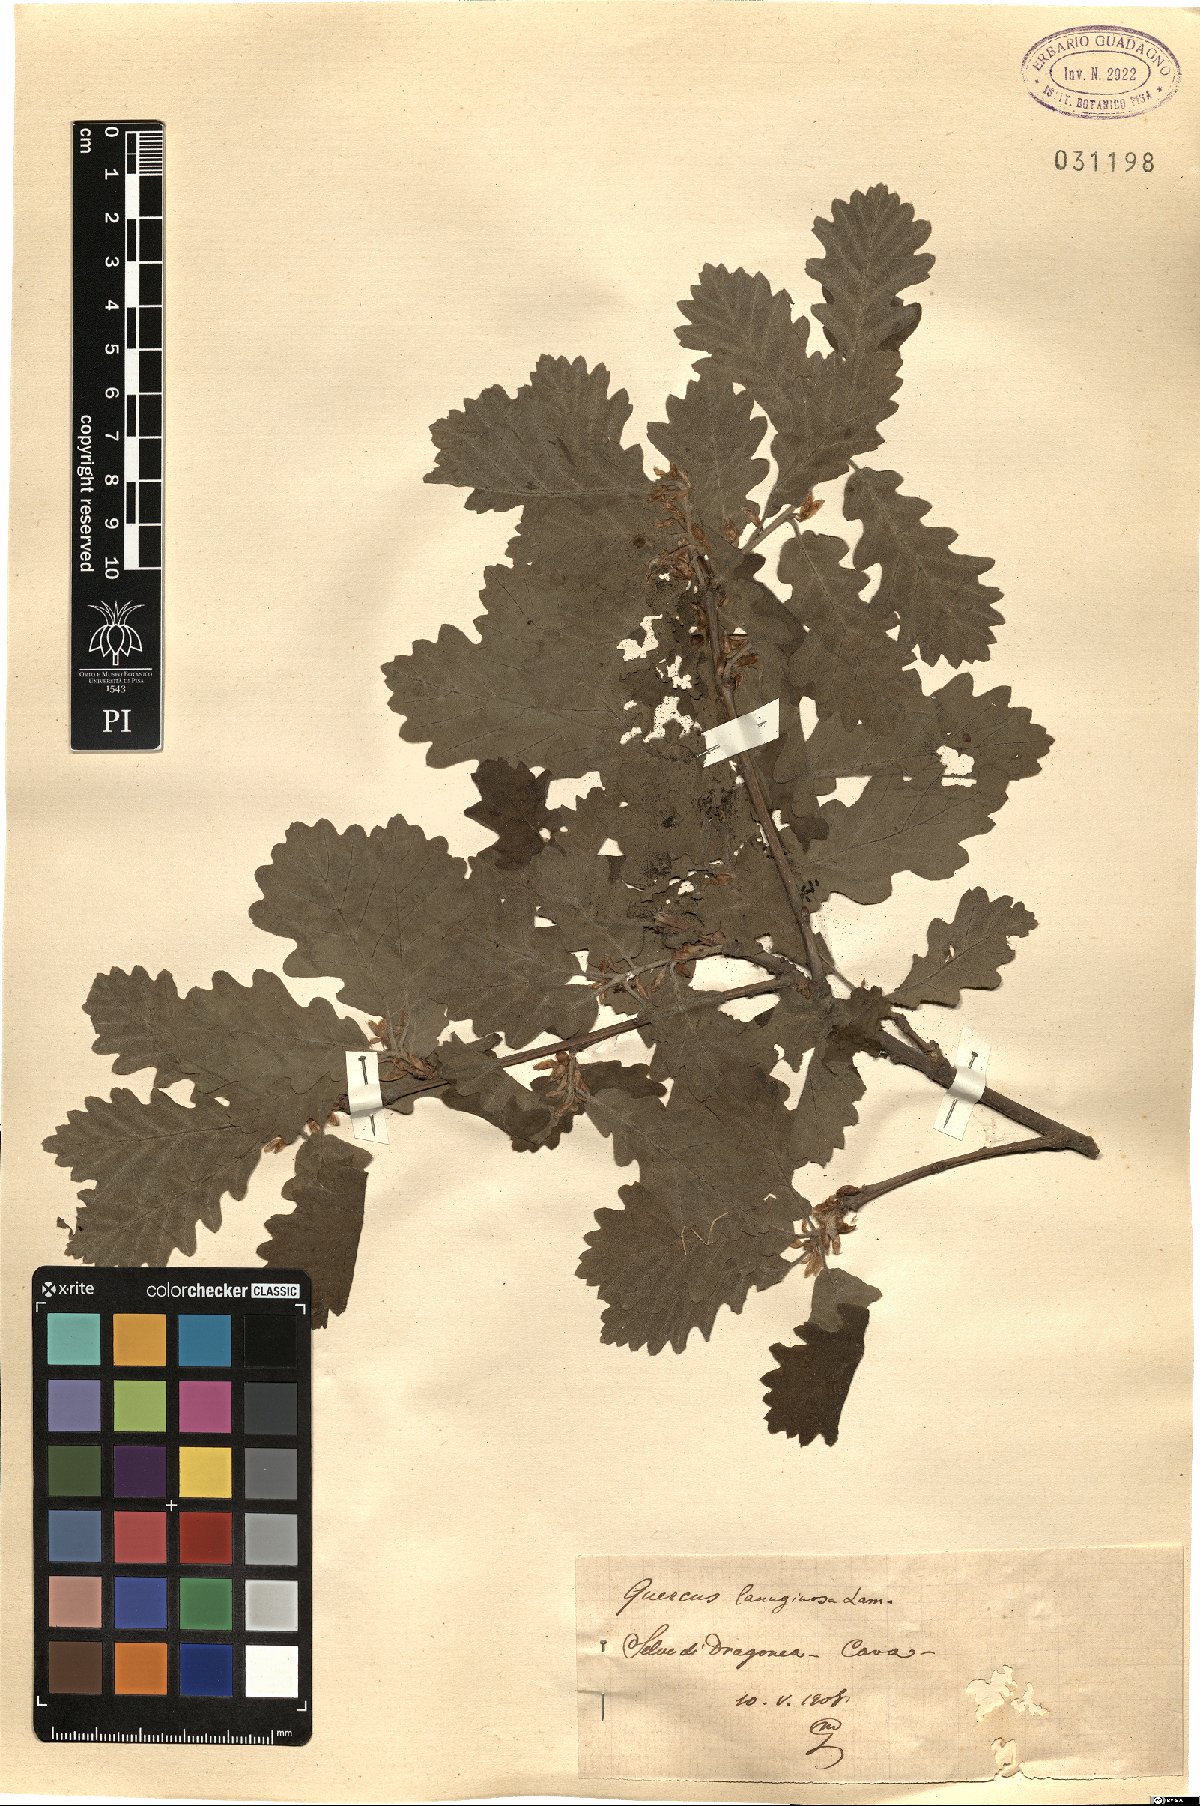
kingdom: Plantae
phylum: Tracheophyta
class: Magnoliopsida
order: Fagales
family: Fagaceae
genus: Quercus
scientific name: Quercus cerris
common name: Turkey oak
